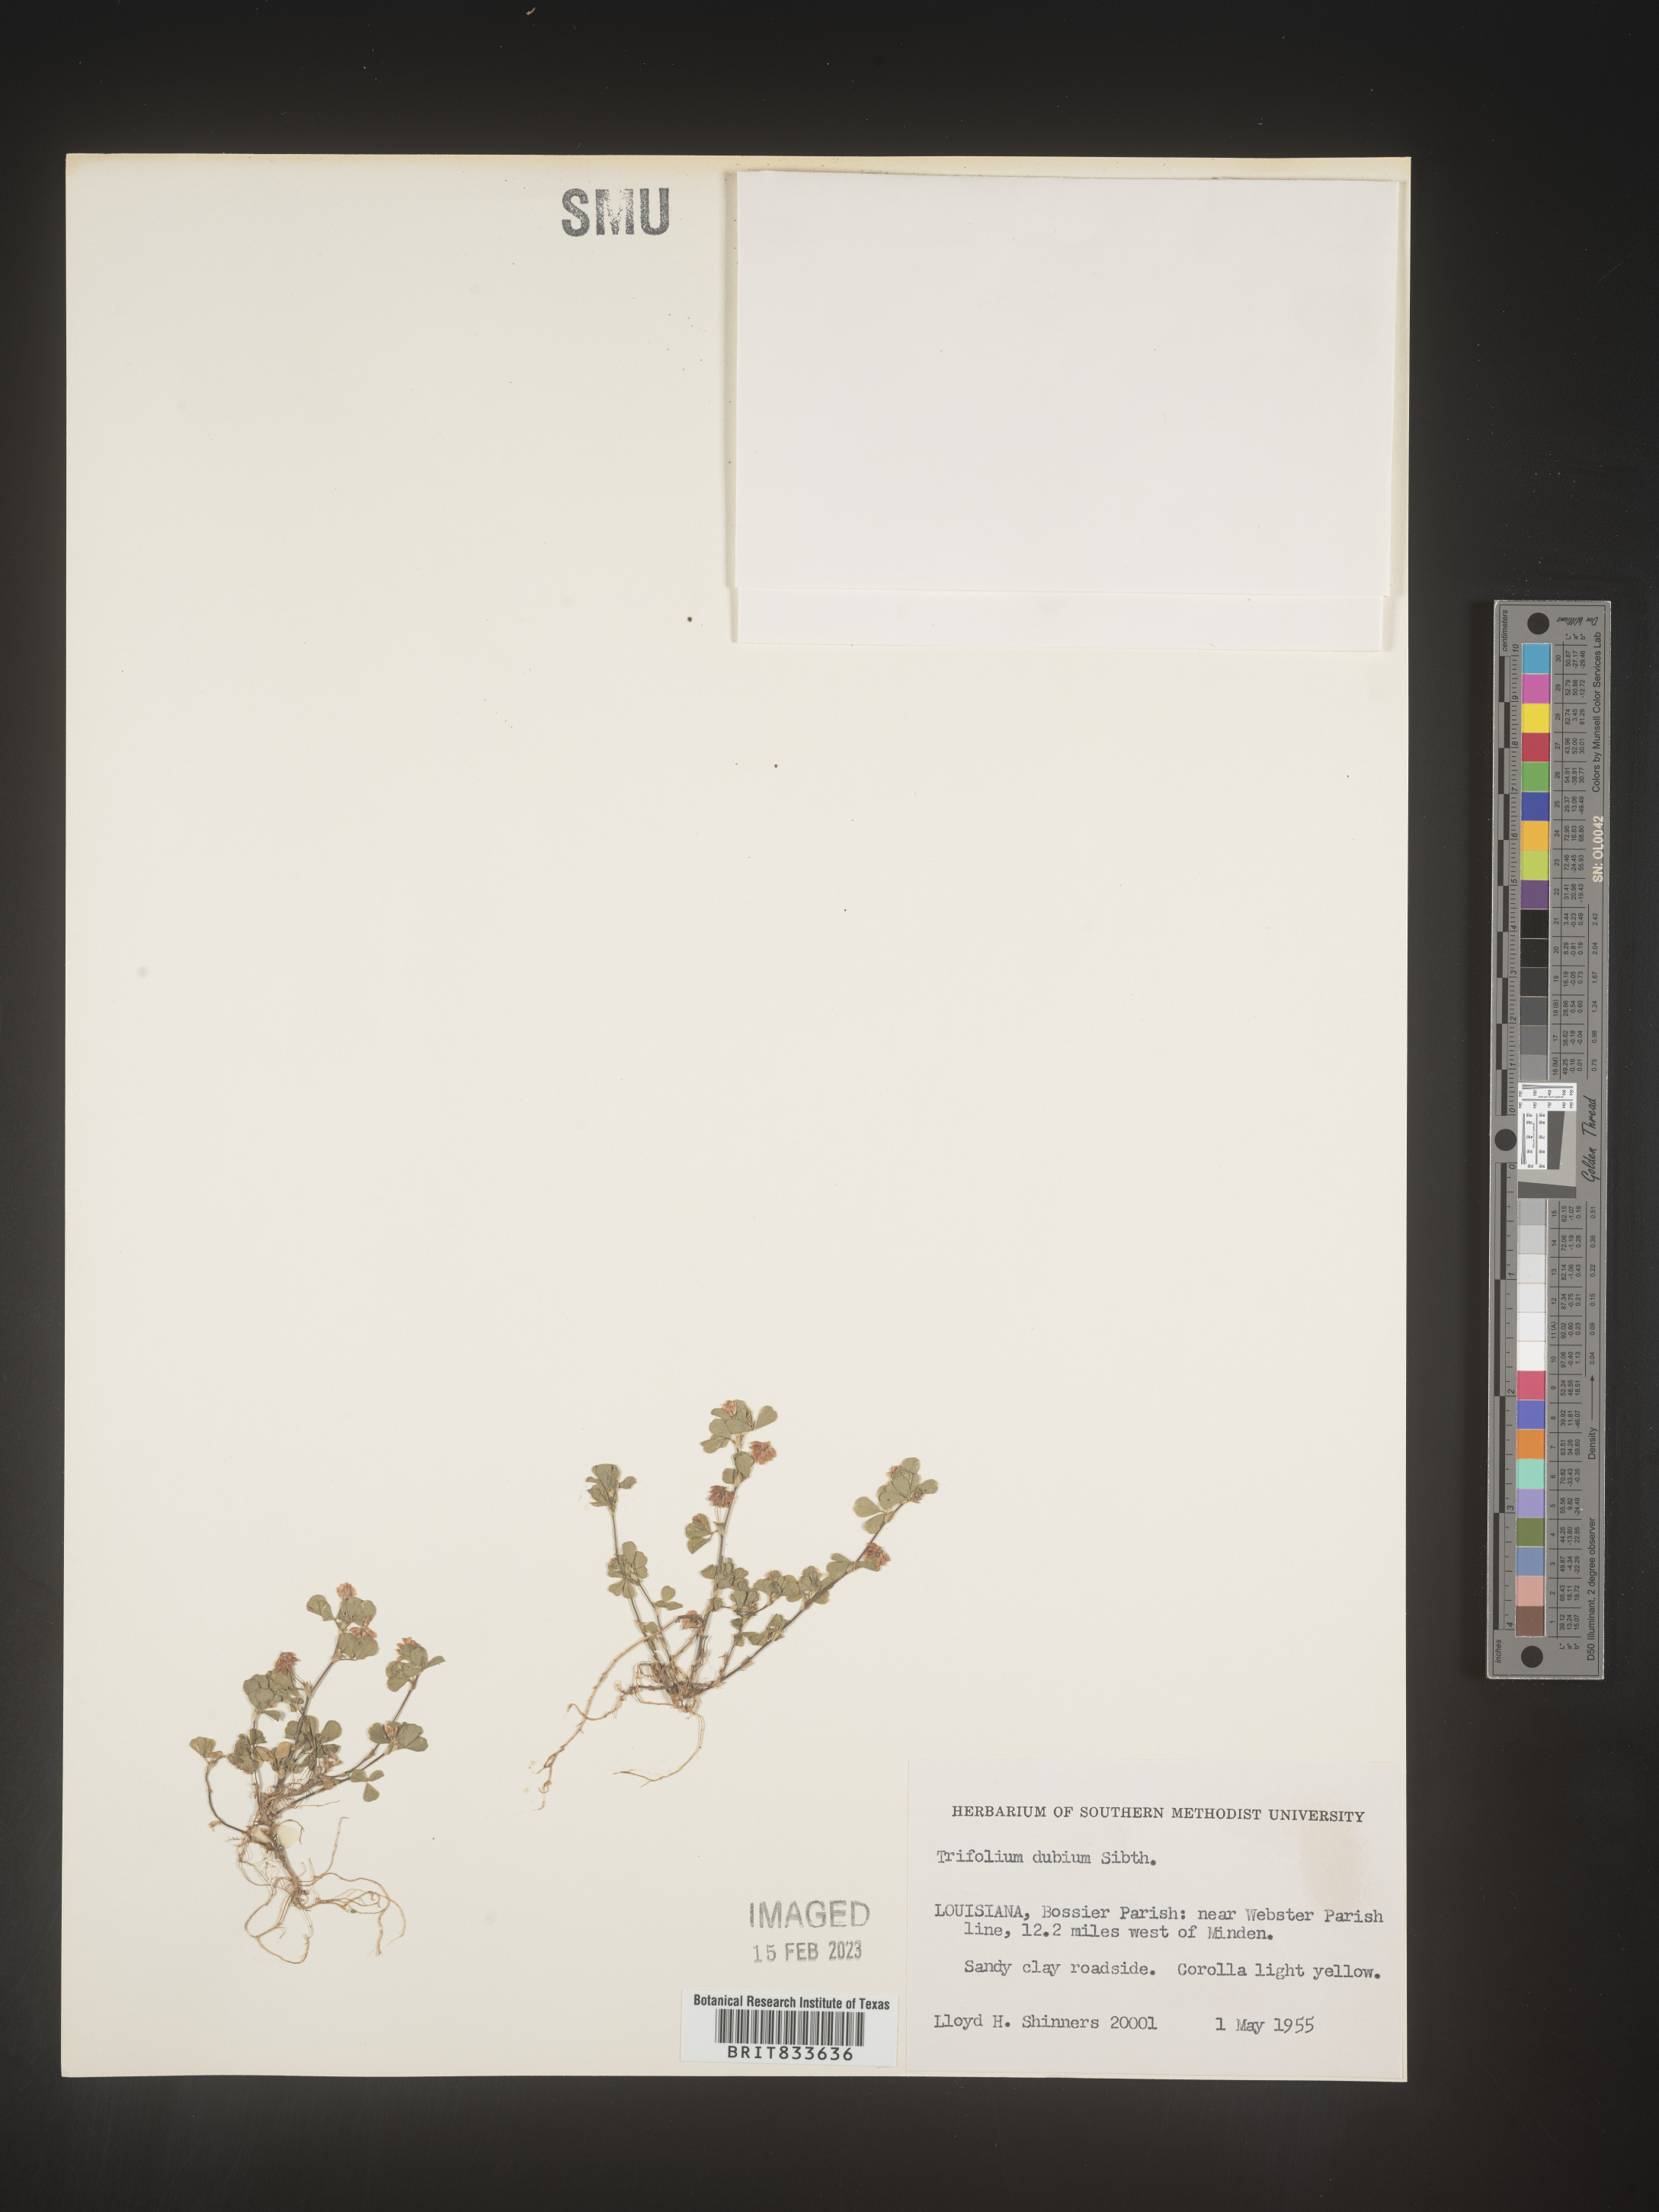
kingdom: Plantae
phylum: Tracheophyta
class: Magnoliopsida
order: Fabales
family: Fabaceae
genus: Trifolium
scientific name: Trifolium dubium
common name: Suckling clover
